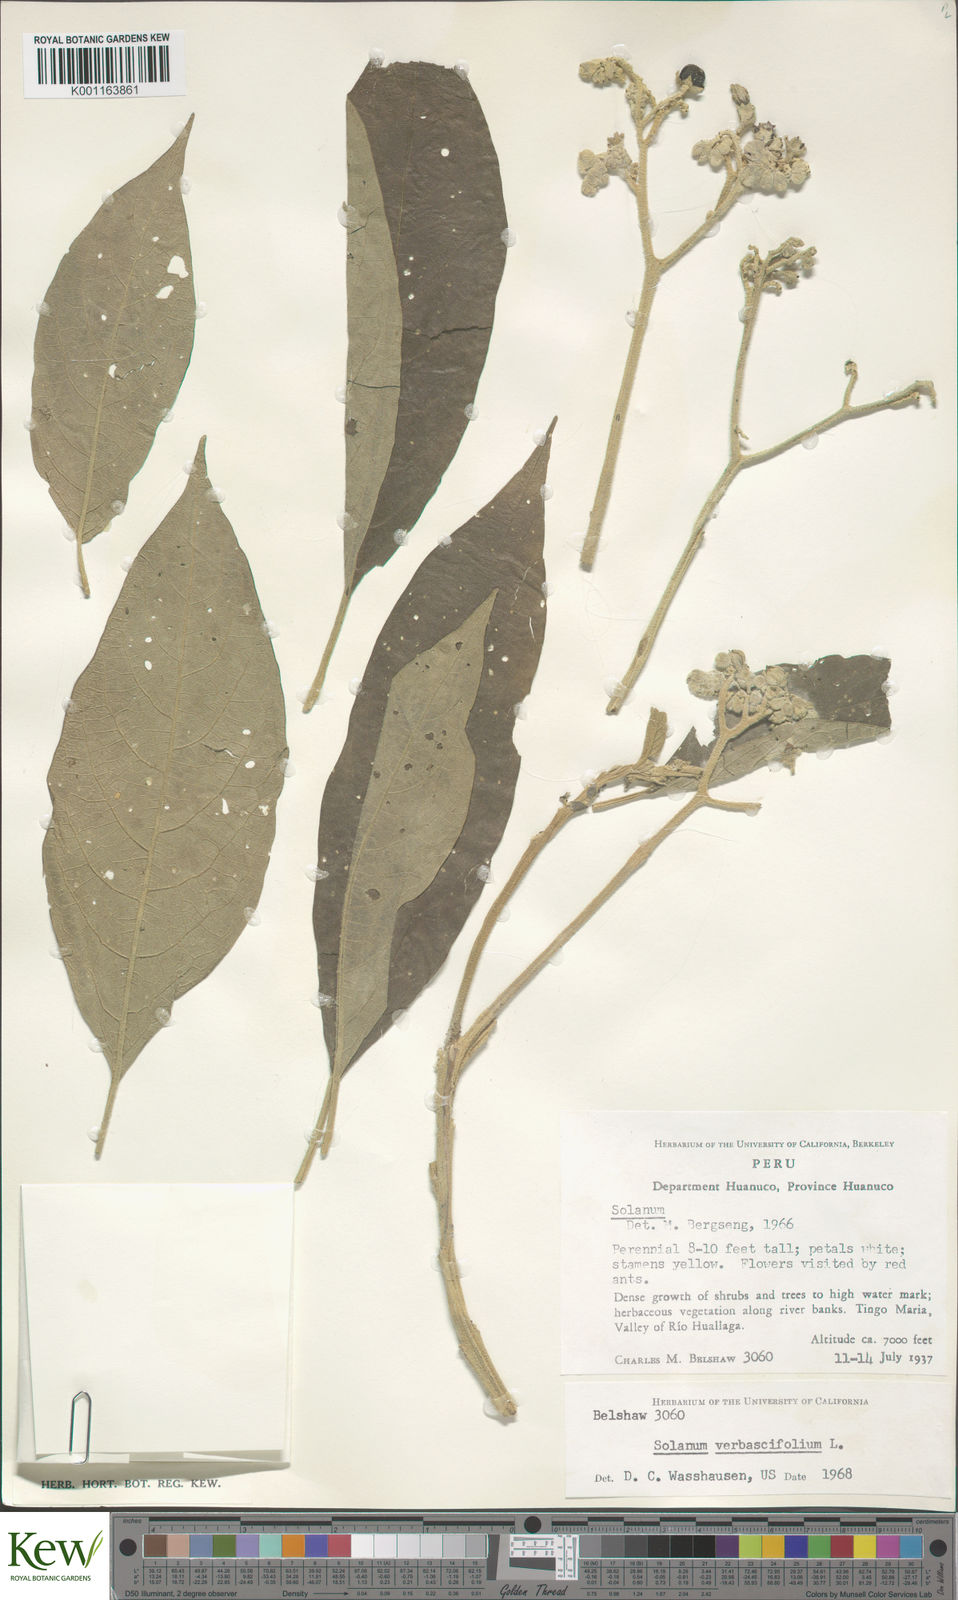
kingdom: Plantae
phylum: Tracheophyta
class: Magnoliopsida
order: Solanales
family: Solanaceae
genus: Solanum
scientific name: Solanum erianthum
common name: Tobacco-tree
